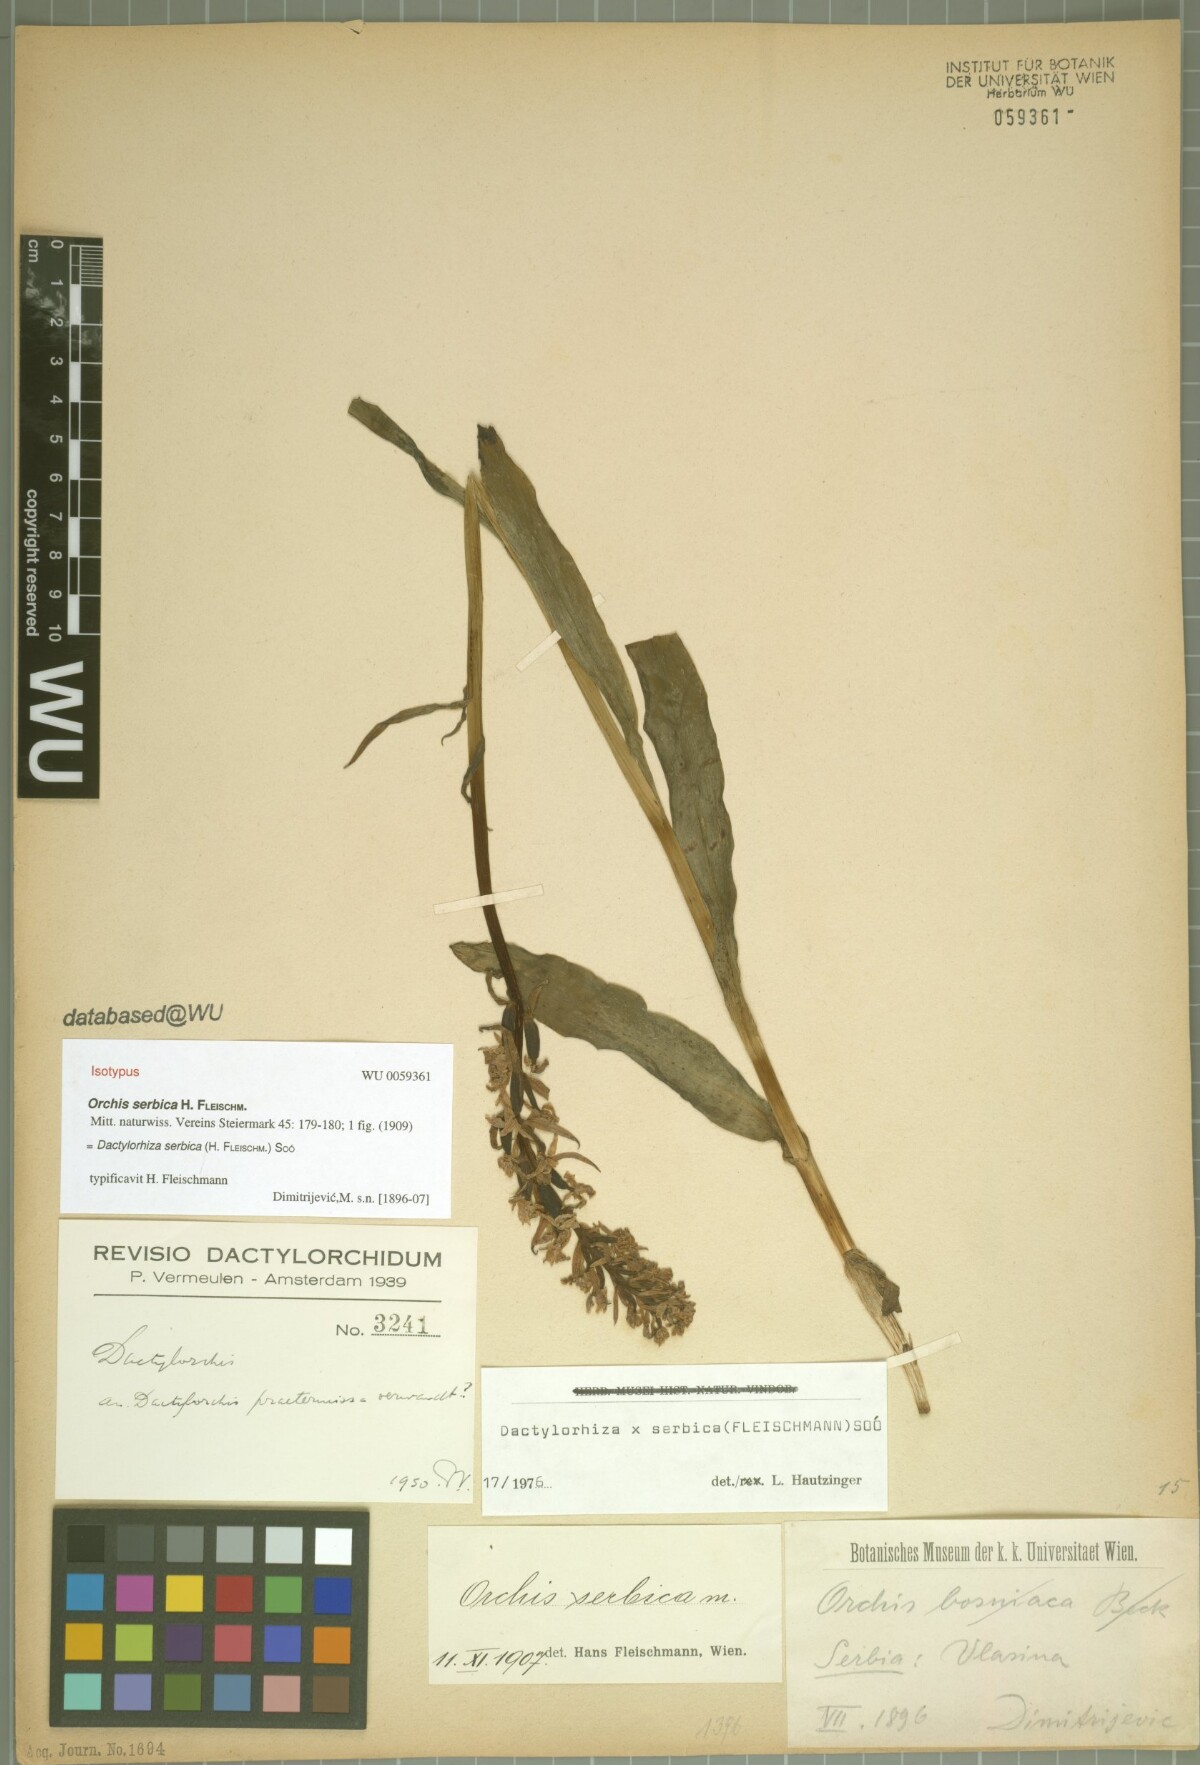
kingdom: Plantae
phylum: Tracheophyta
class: Liliopsida
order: Asparagales
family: Orchidaceae
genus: Dactylorhiza
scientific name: Dactylorhiza serbica
